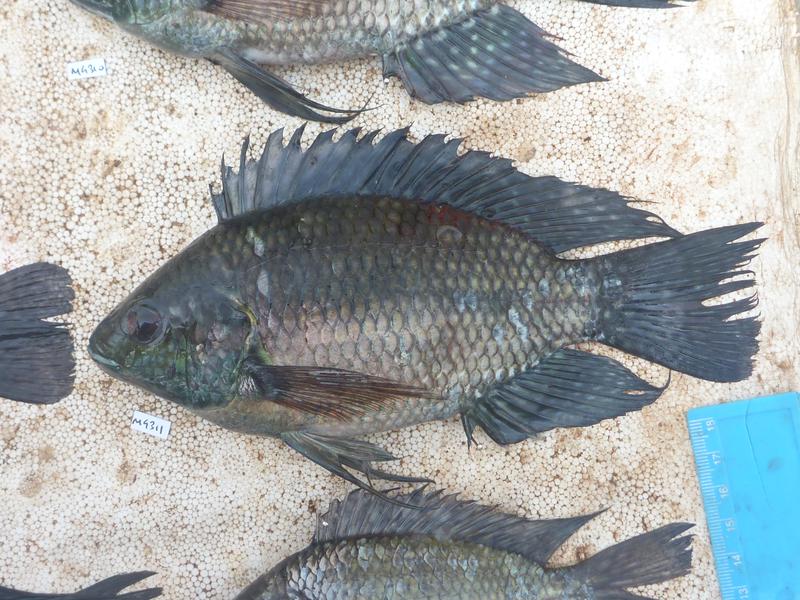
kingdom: Animalia
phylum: Chordata
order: Perciformes
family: Cichlidae
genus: Oreochromis
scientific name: Oreochromis leucostictus
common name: Blue spotted tilapia
